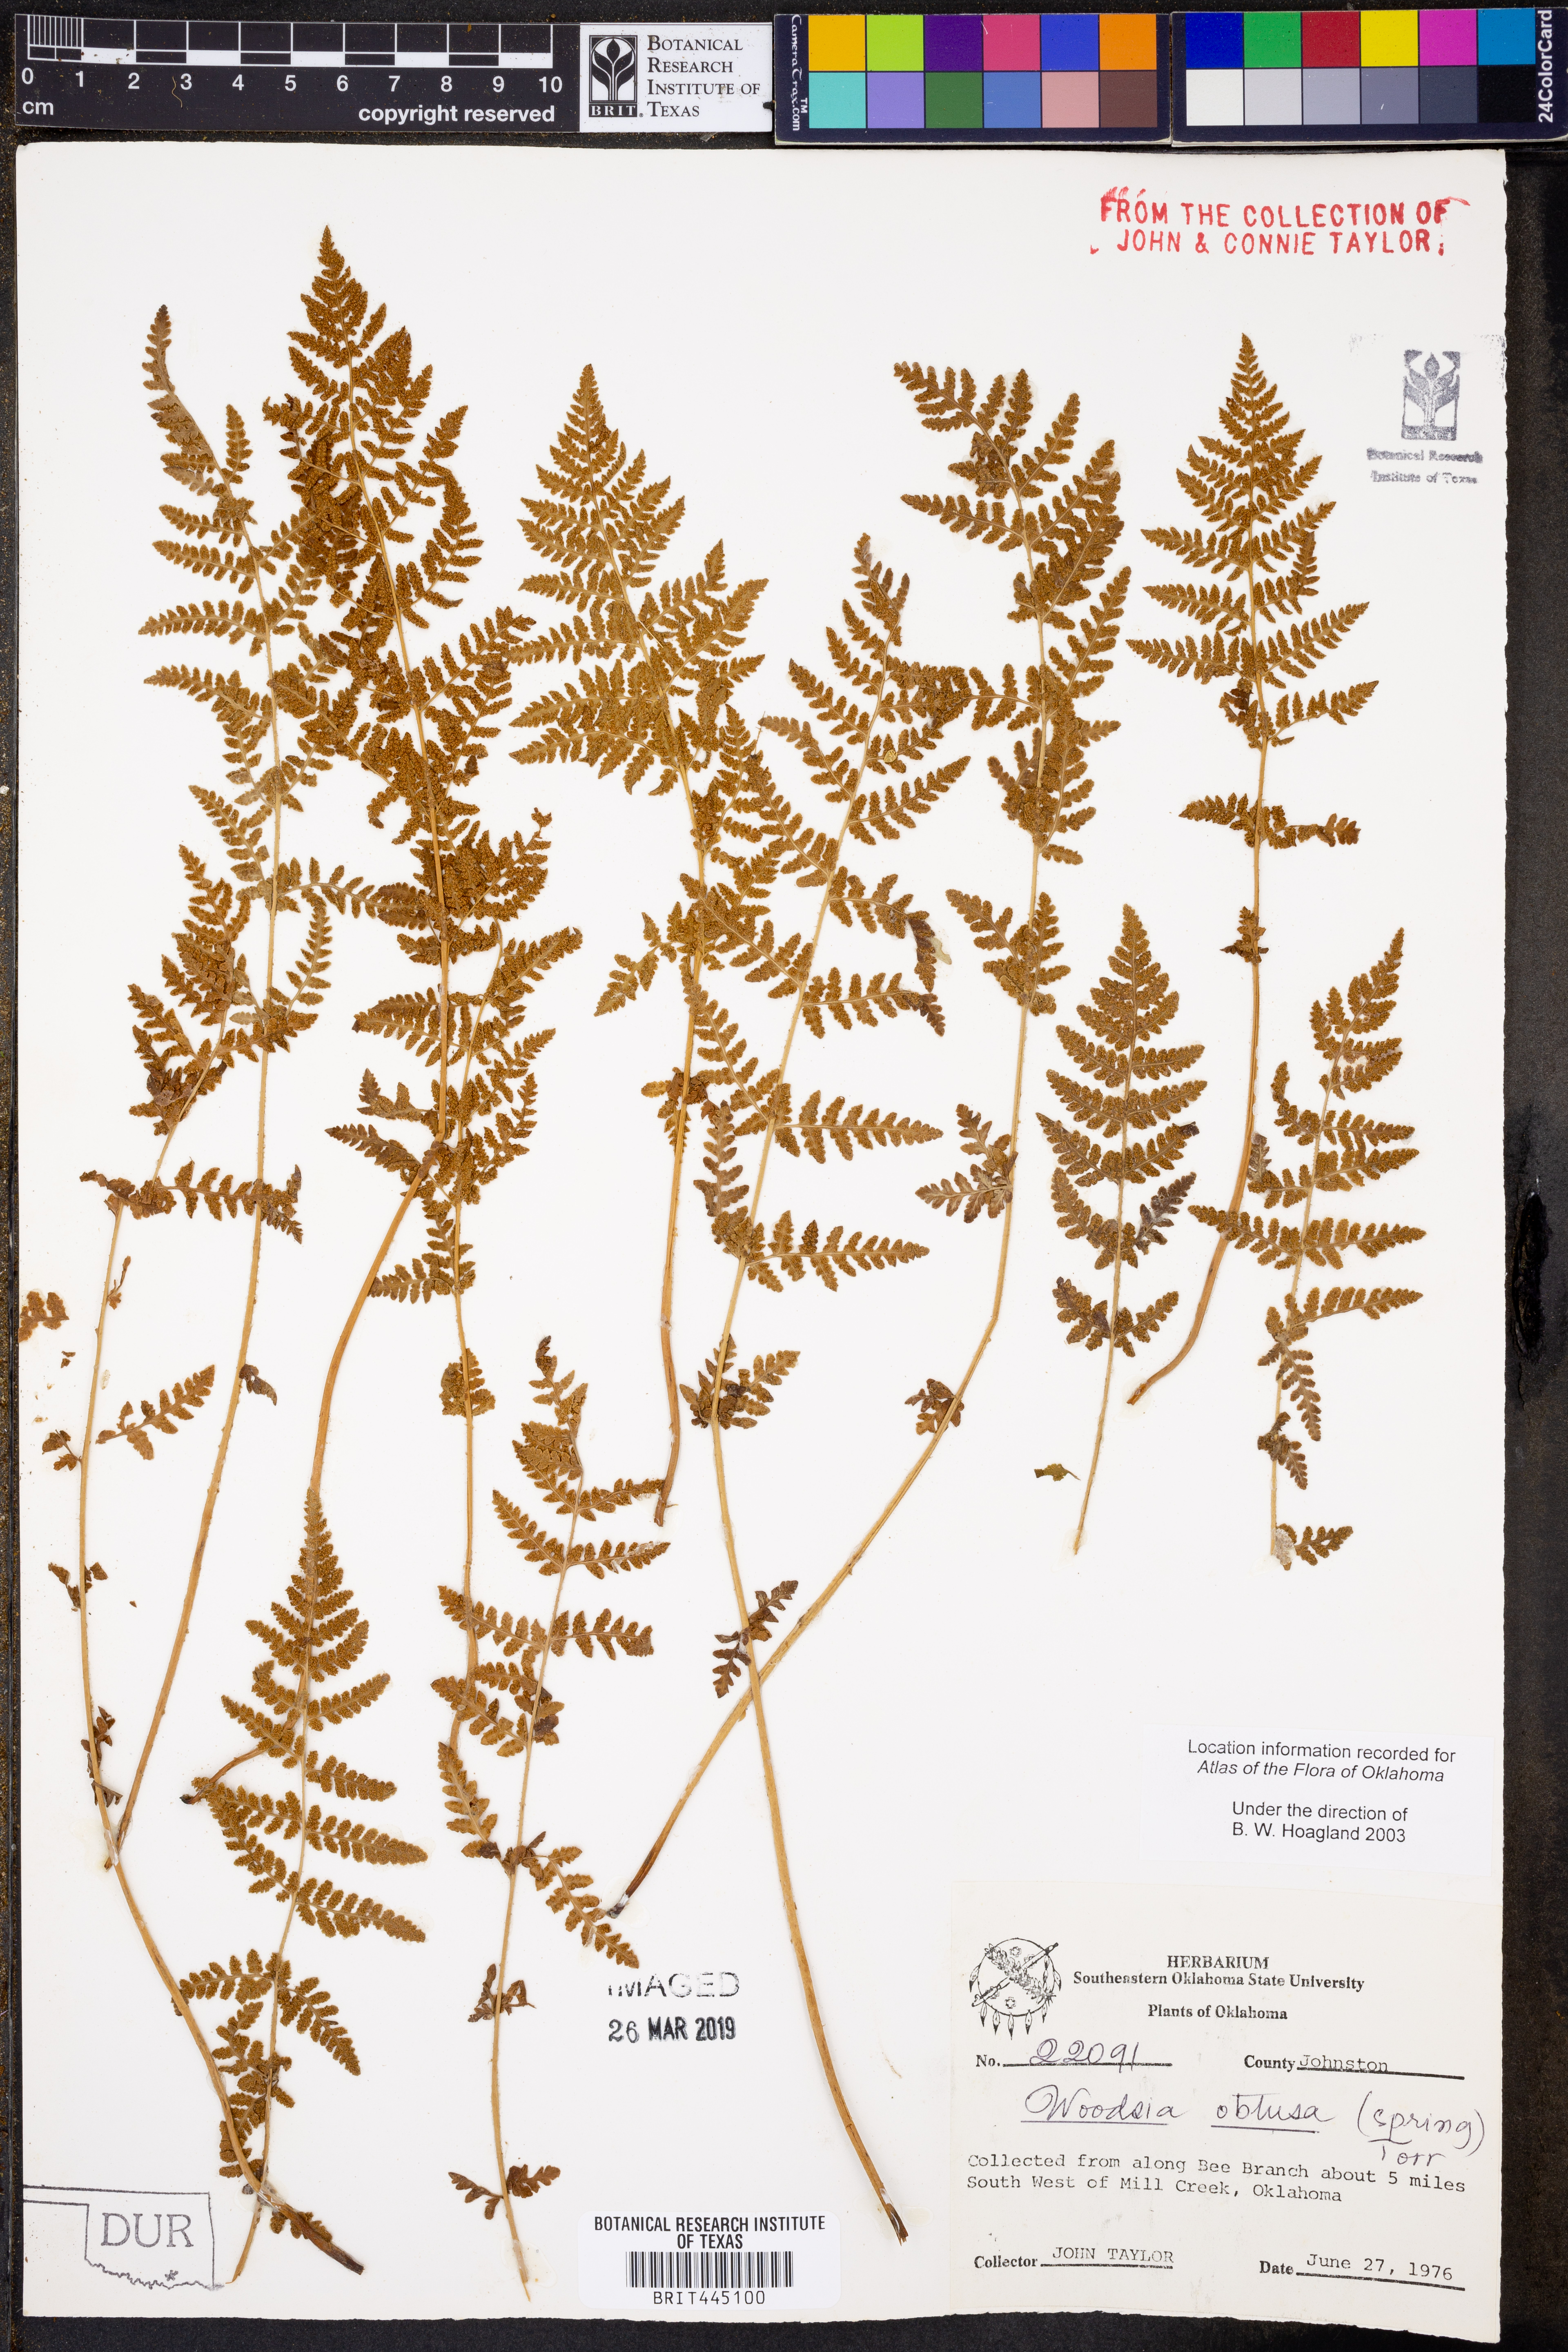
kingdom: Plantae
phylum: Tracheophyta
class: Polypodiopsida
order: Polypodiales
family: Woodsiaceae
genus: Physematium
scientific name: Physematium obtusum
